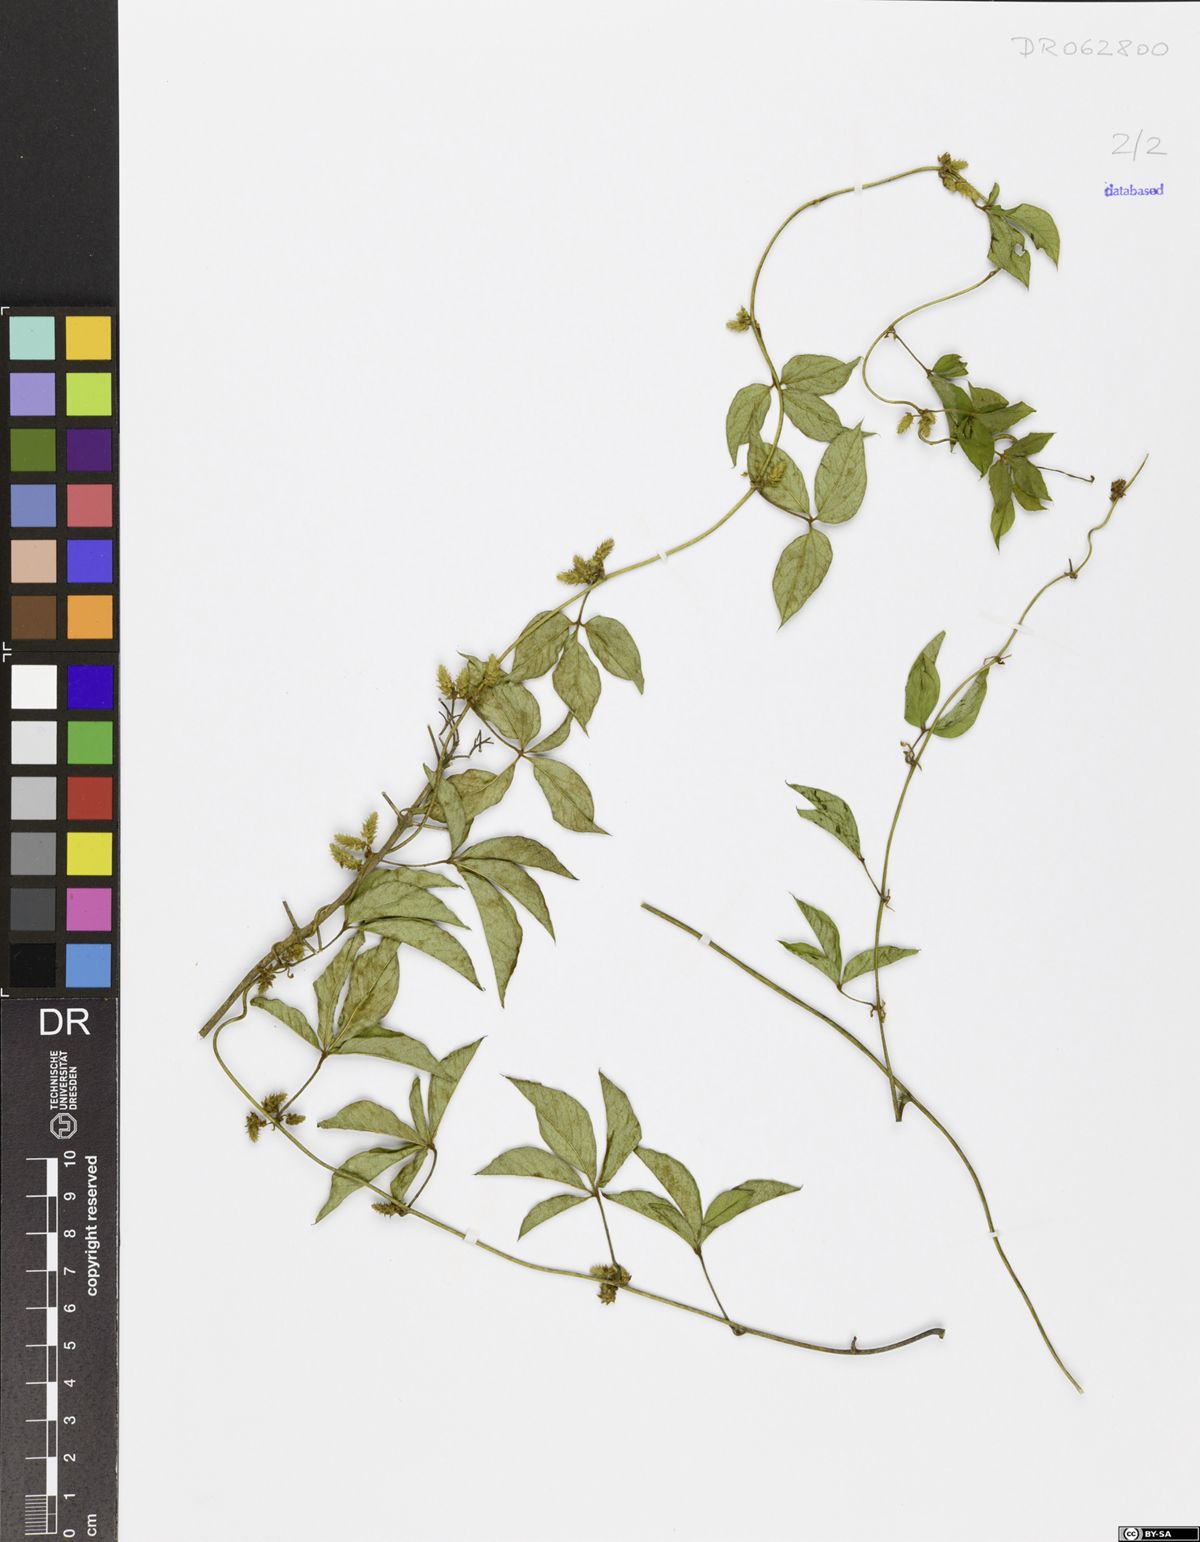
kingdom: Plantae
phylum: Tracheophyta
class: Liliopsida
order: Dioscoreales
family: Dioscoreaceae
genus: Dioscorea
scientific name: Dioscorea quartiniana
